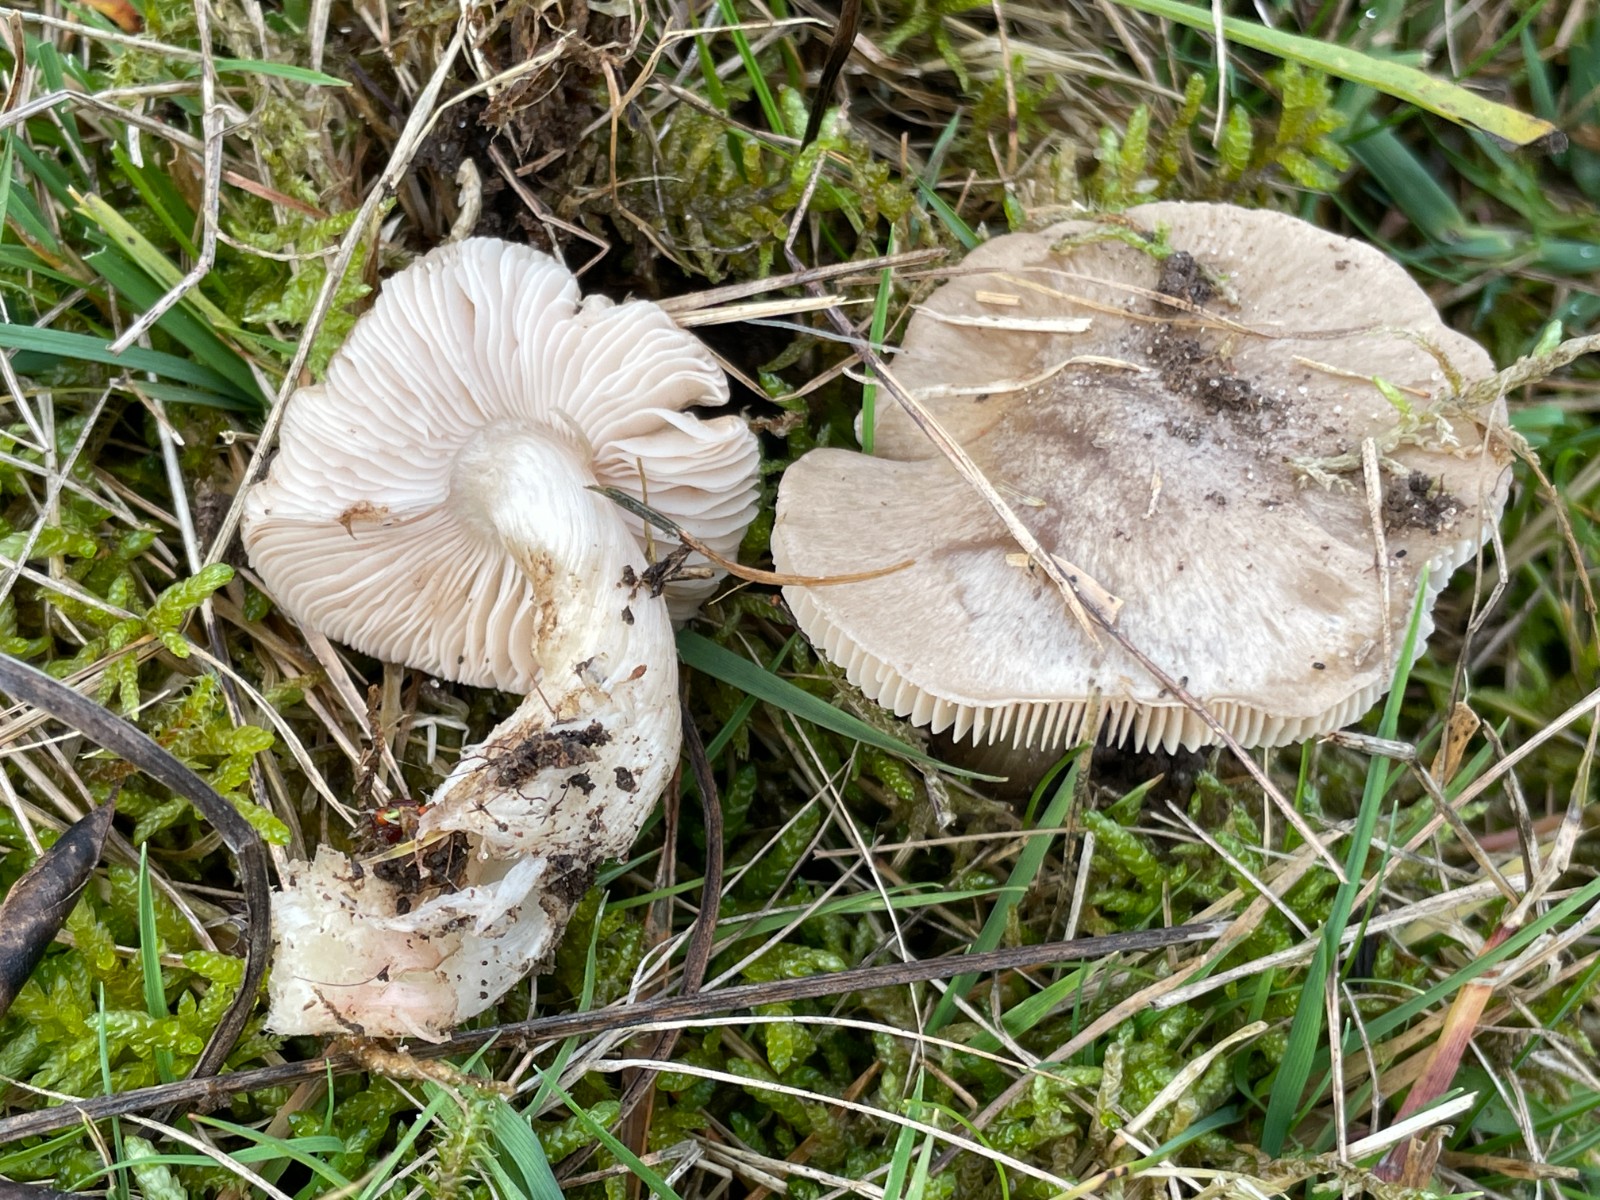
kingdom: Fungi
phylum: Basidiomycota
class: Agaricomycetes
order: Agaricales
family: Entolomataceae
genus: Entoloma
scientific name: Entoloma prunuloides
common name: mel-rødblad
